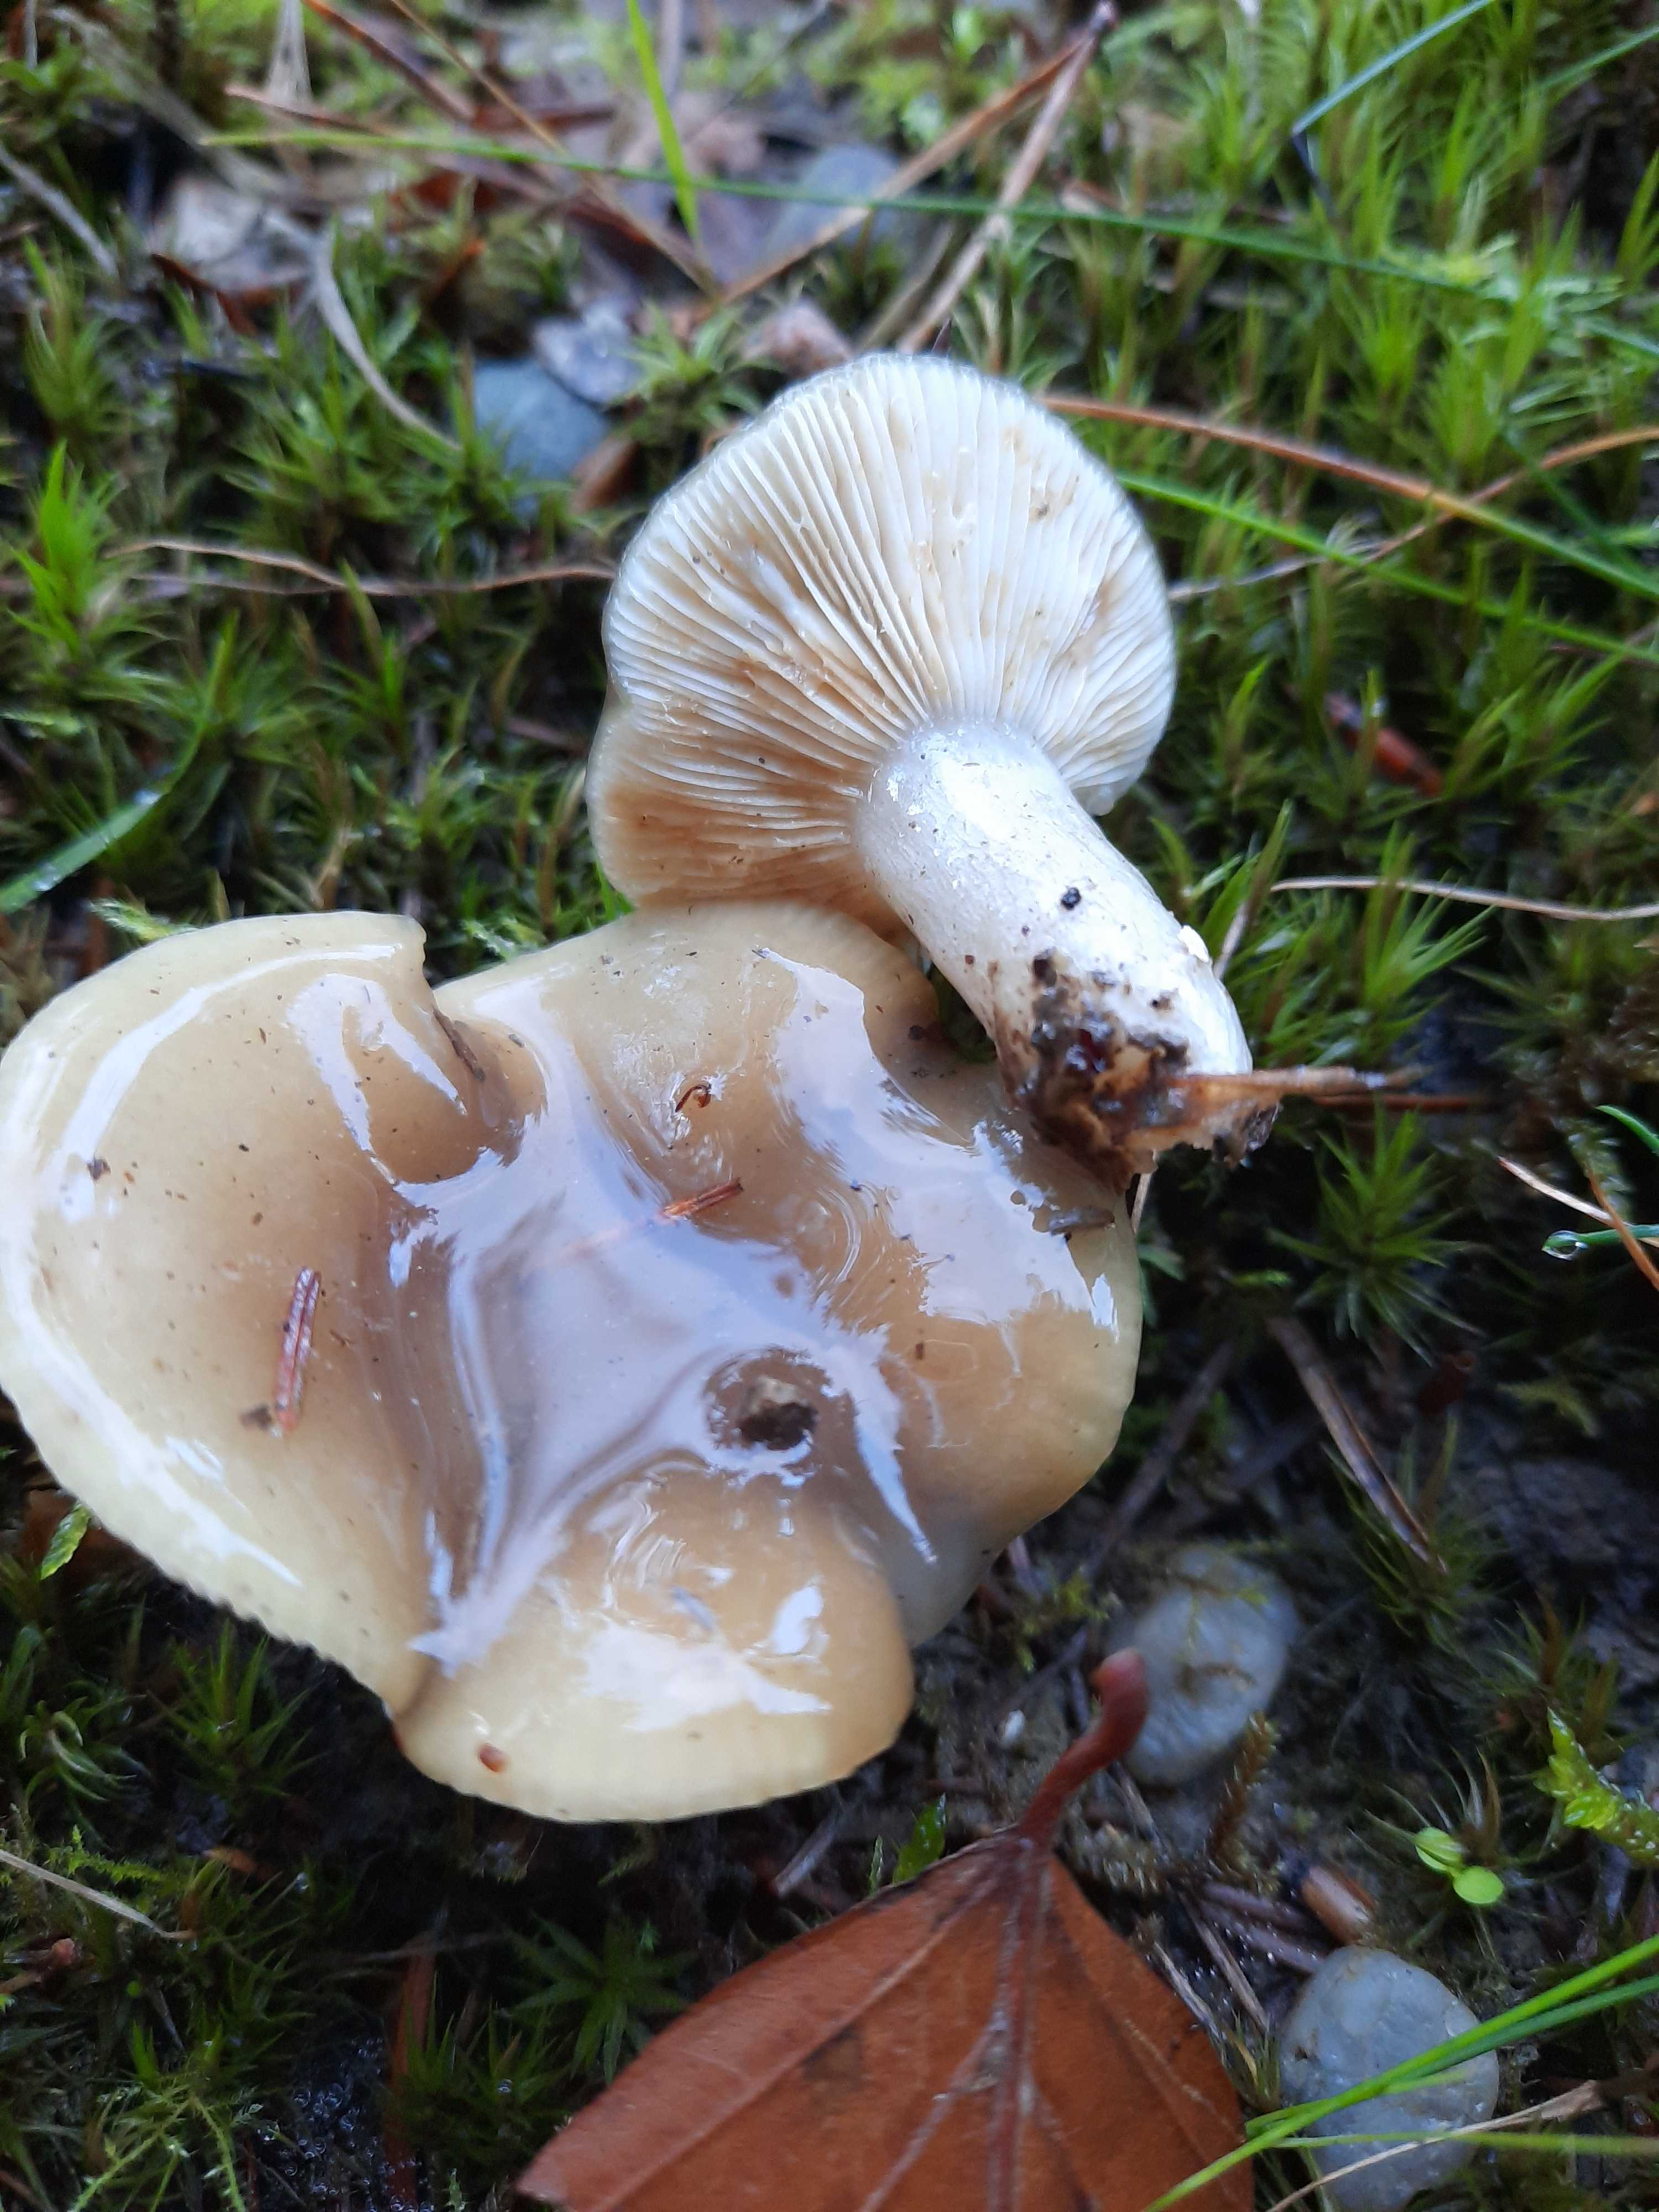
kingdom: Fungi
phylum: Basidiomycota
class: Agaricomycetes
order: Russulales
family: Russulaceae
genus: Lactarius
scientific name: Lactarius blennius
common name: dråbeplettet mælkehat
